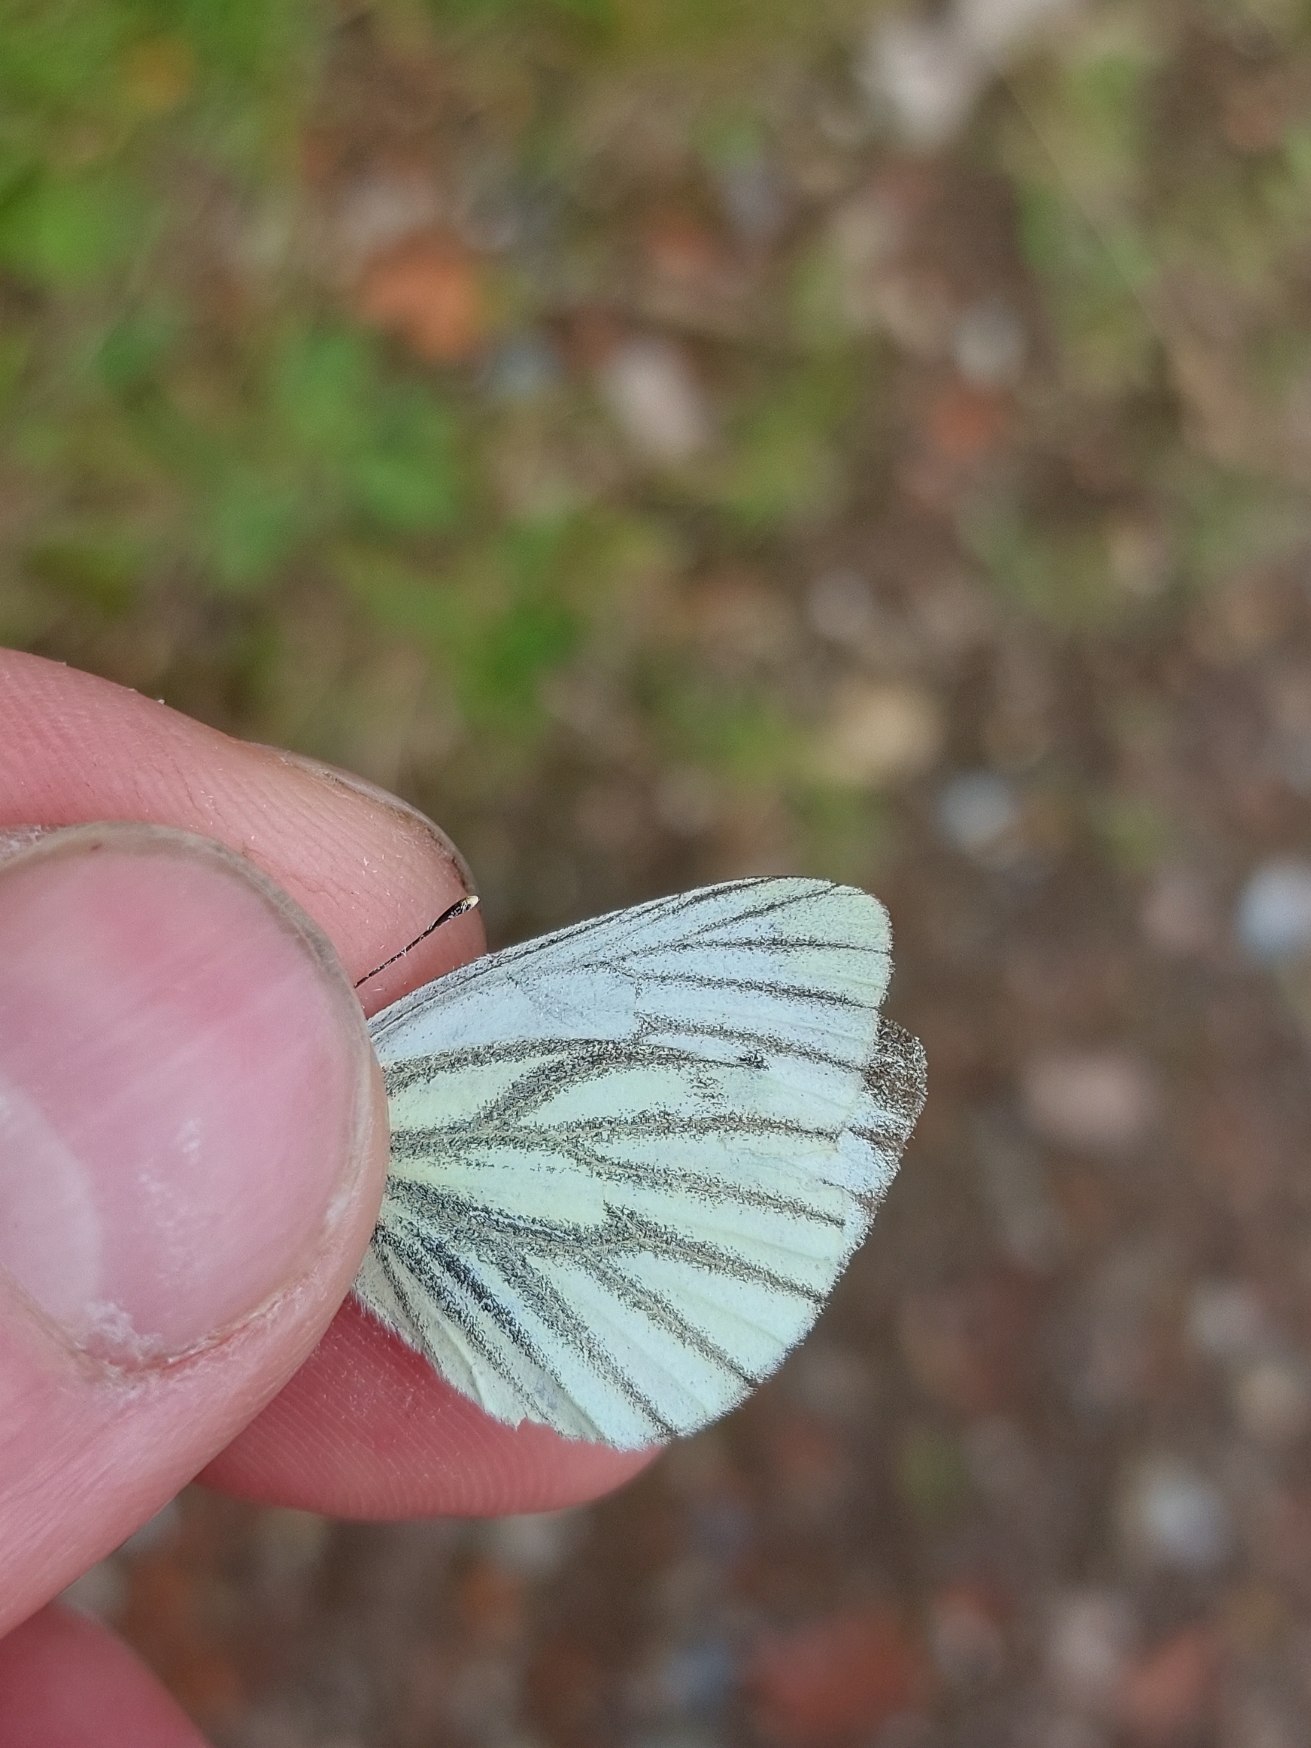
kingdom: Animalia
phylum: Arthropoda
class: Insecta
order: Lepidoptera
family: Pieridae
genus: Pieris
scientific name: Pieris napi
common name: Grønåret kålsommerfugl
